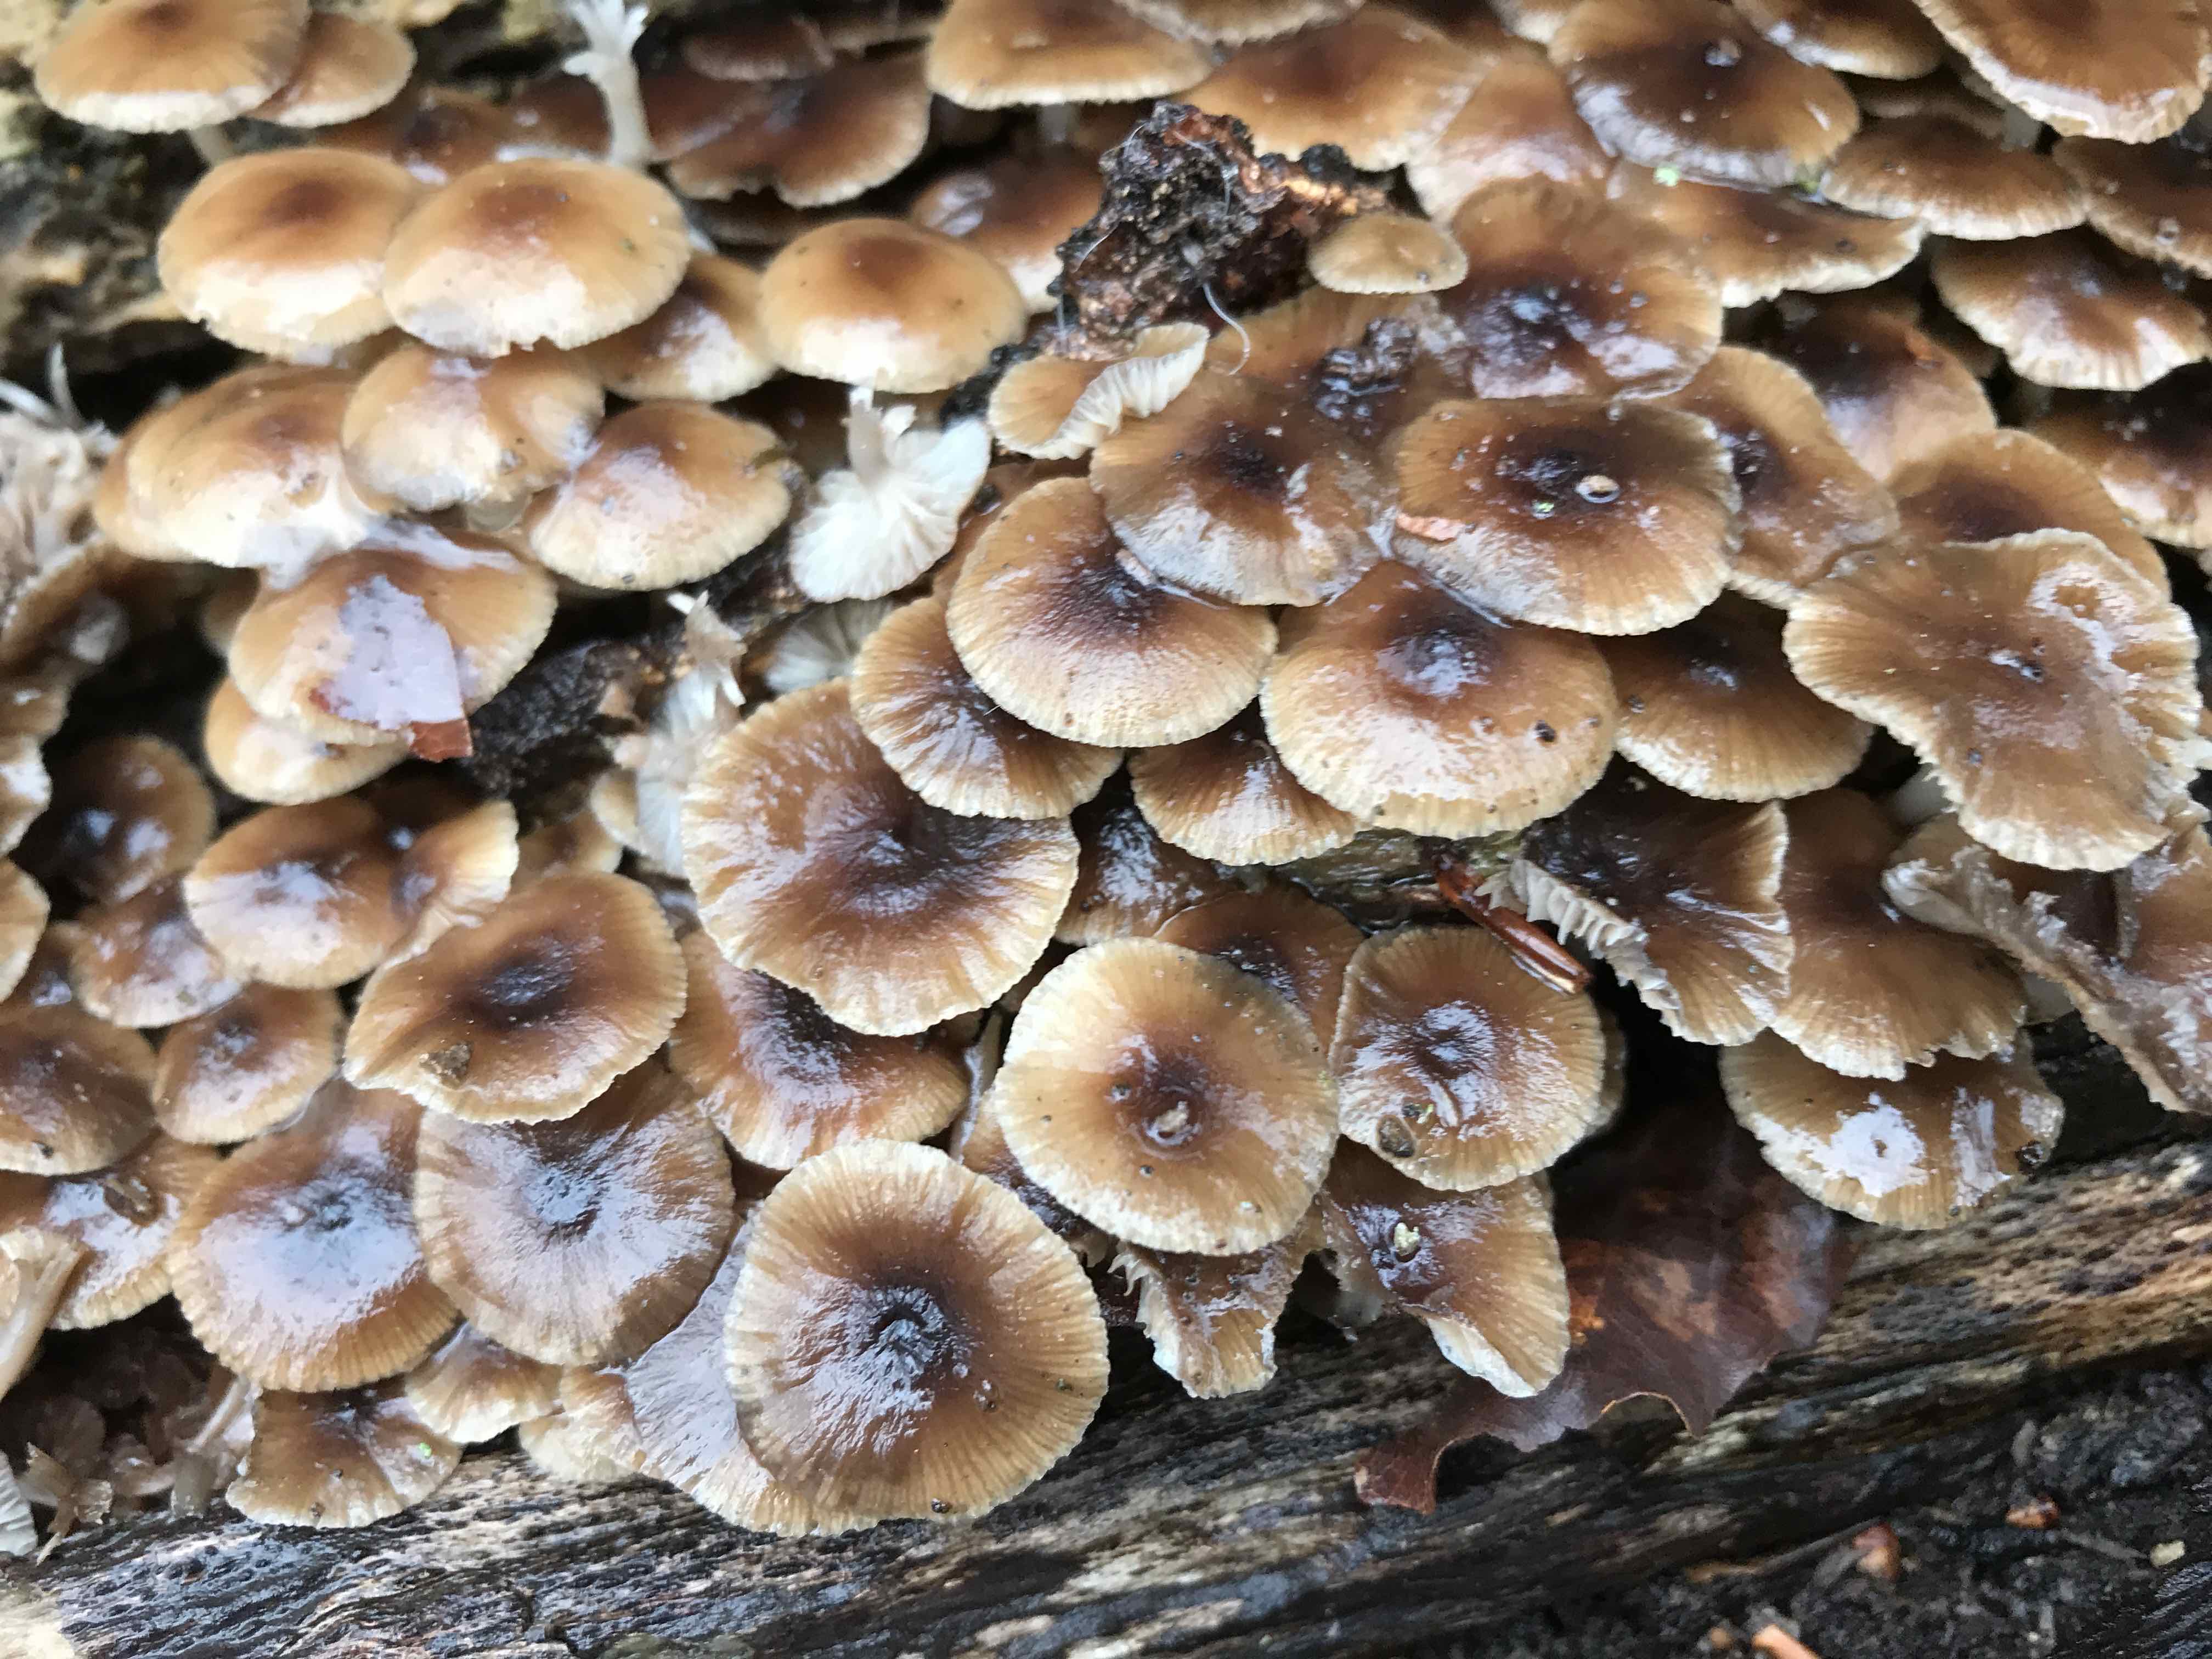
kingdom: Fungi
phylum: Basidiomycota
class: Agaricomycetes
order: Agaricales
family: Mycenaceae
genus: Mycena
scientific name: Mycena tintinnabulum
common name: vinter-huesvamp
